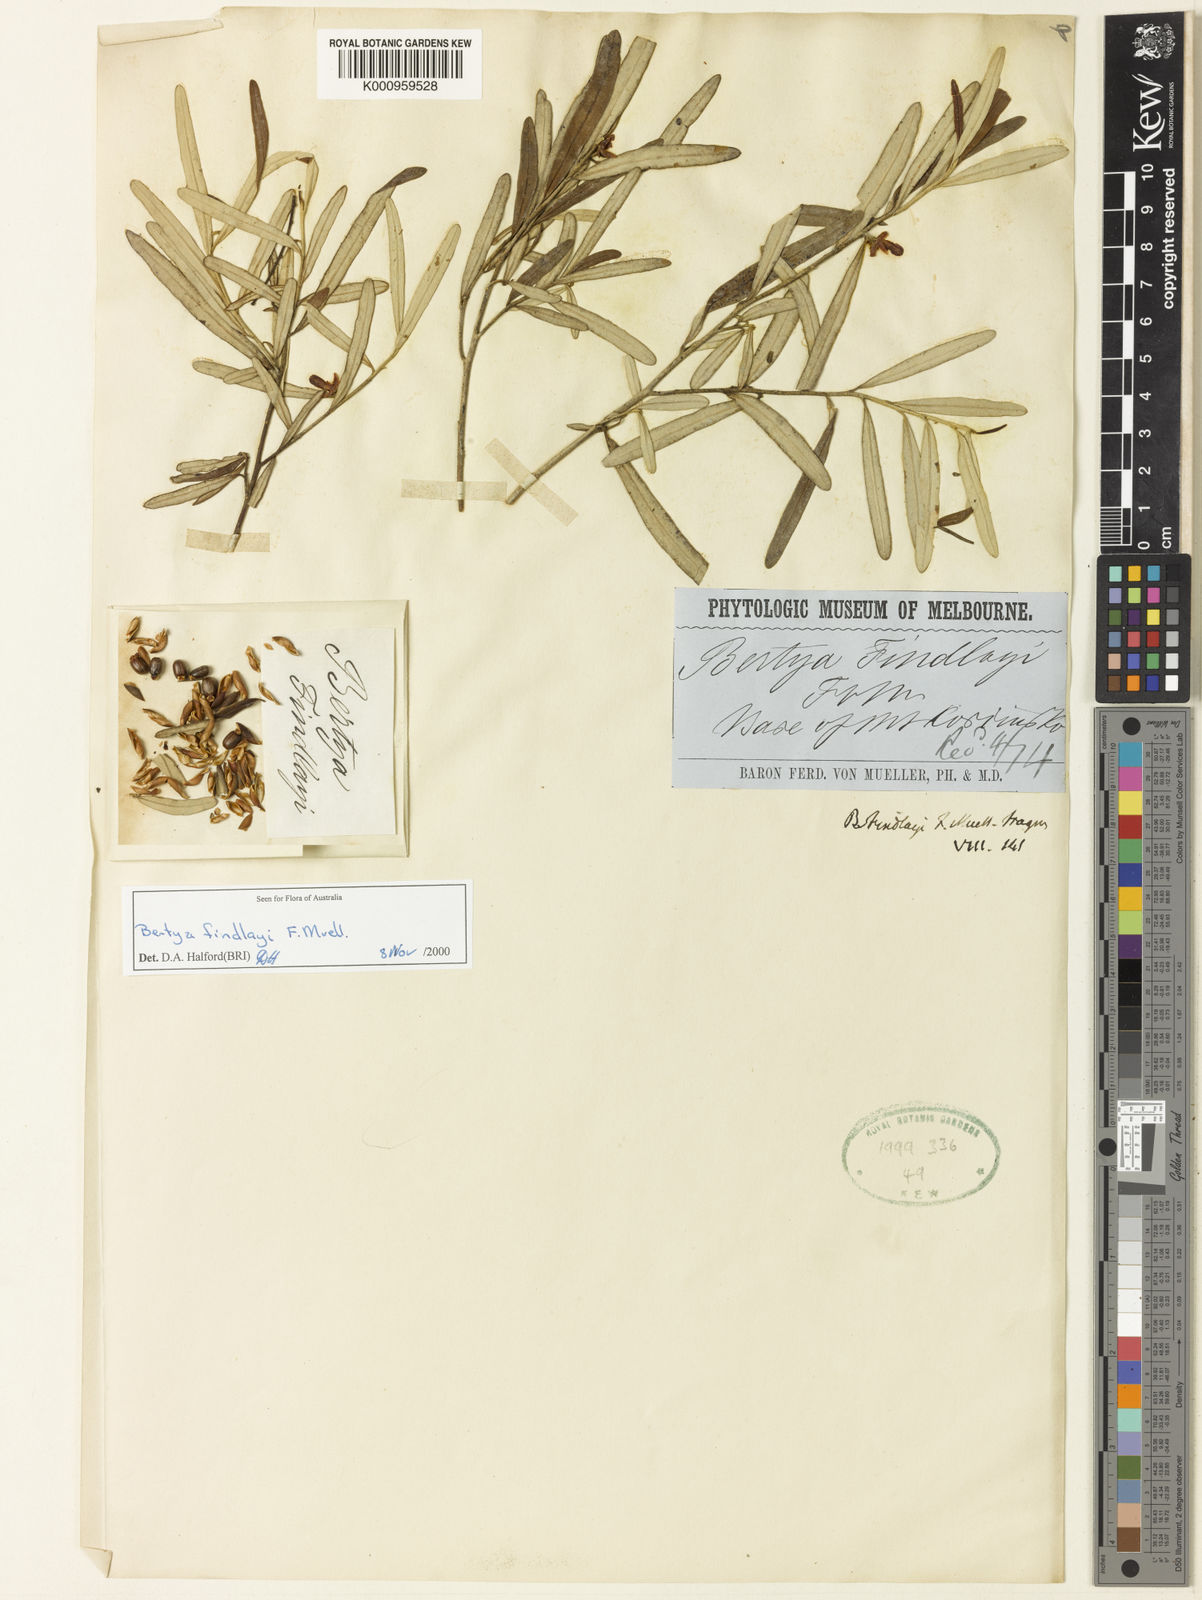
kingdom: Plantae
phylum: Tracheophyta
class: Magnoliopsida
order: Malpighiales
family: Euphorbiaceae
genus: Bertya
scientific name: Bertya findlayi
